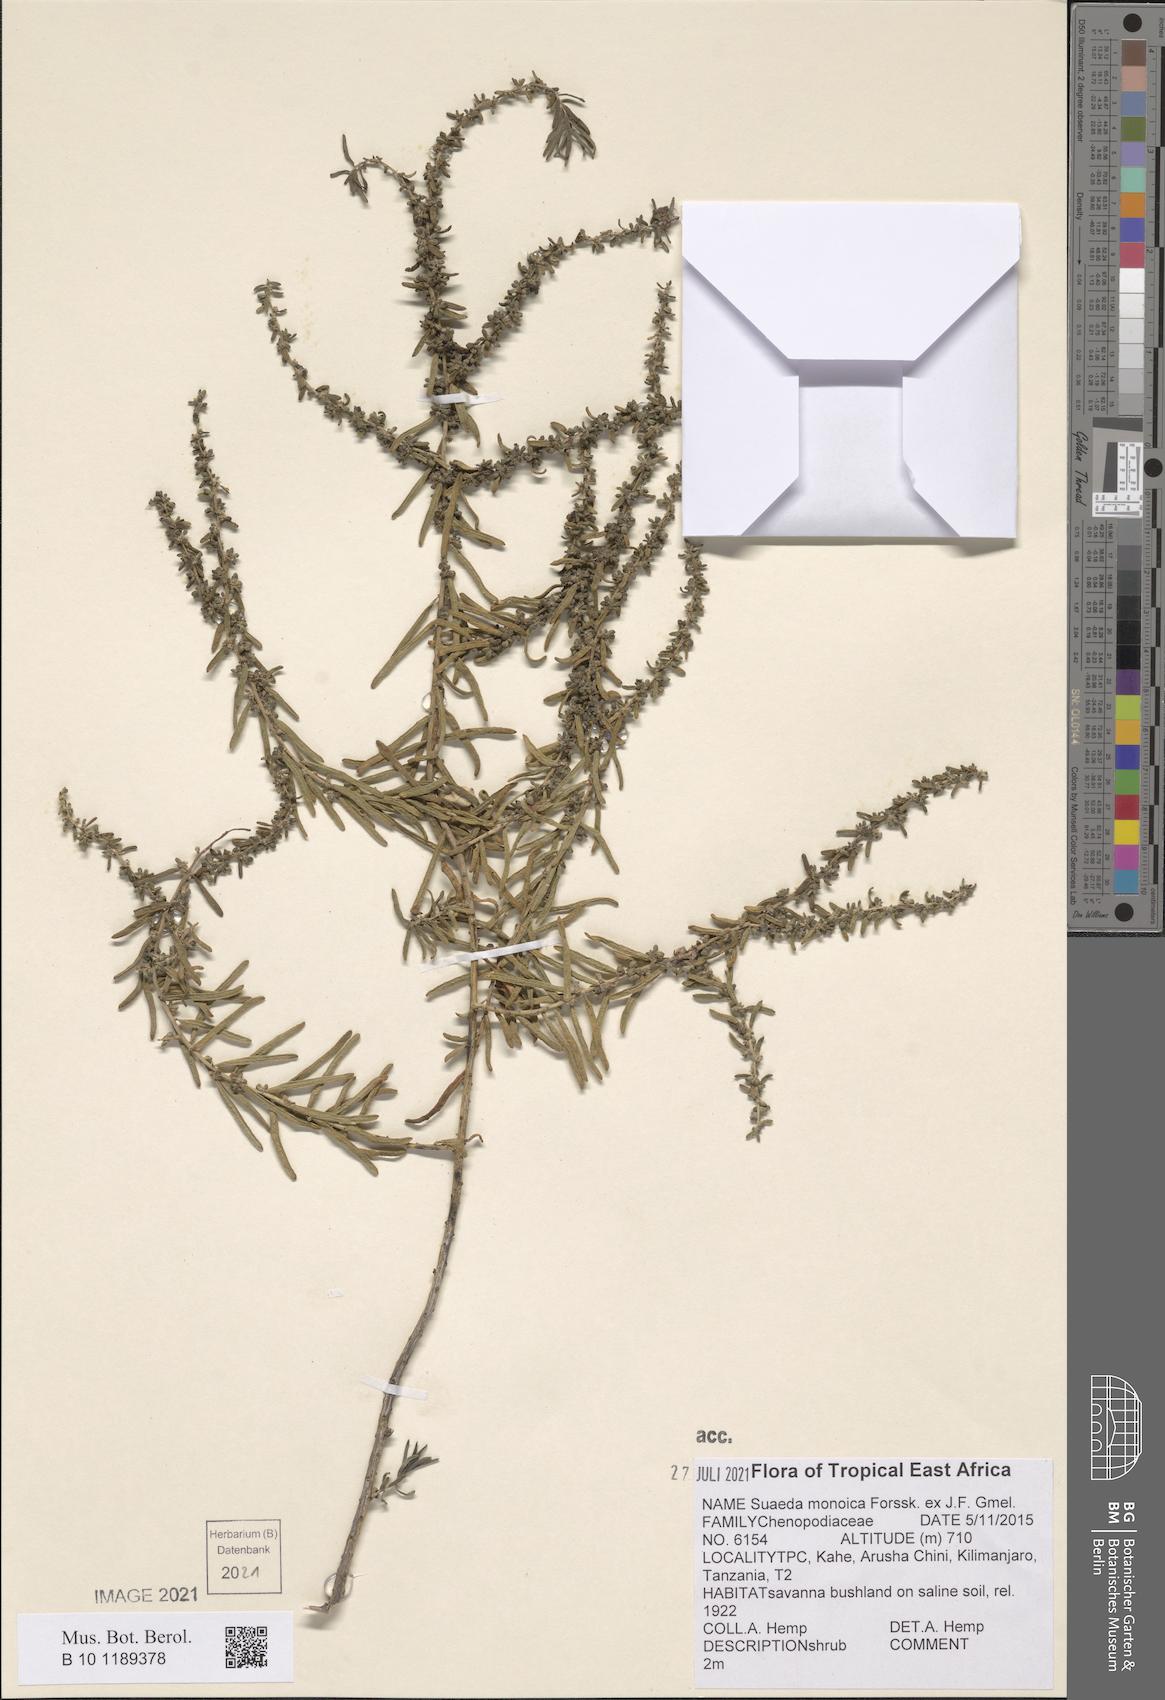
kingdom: Plantae
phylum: Tracheophyta
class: Magnoliopsida
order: Caryophyllales
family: Amaranthaceae
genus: Suaeda
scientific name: Suaeda monoica
